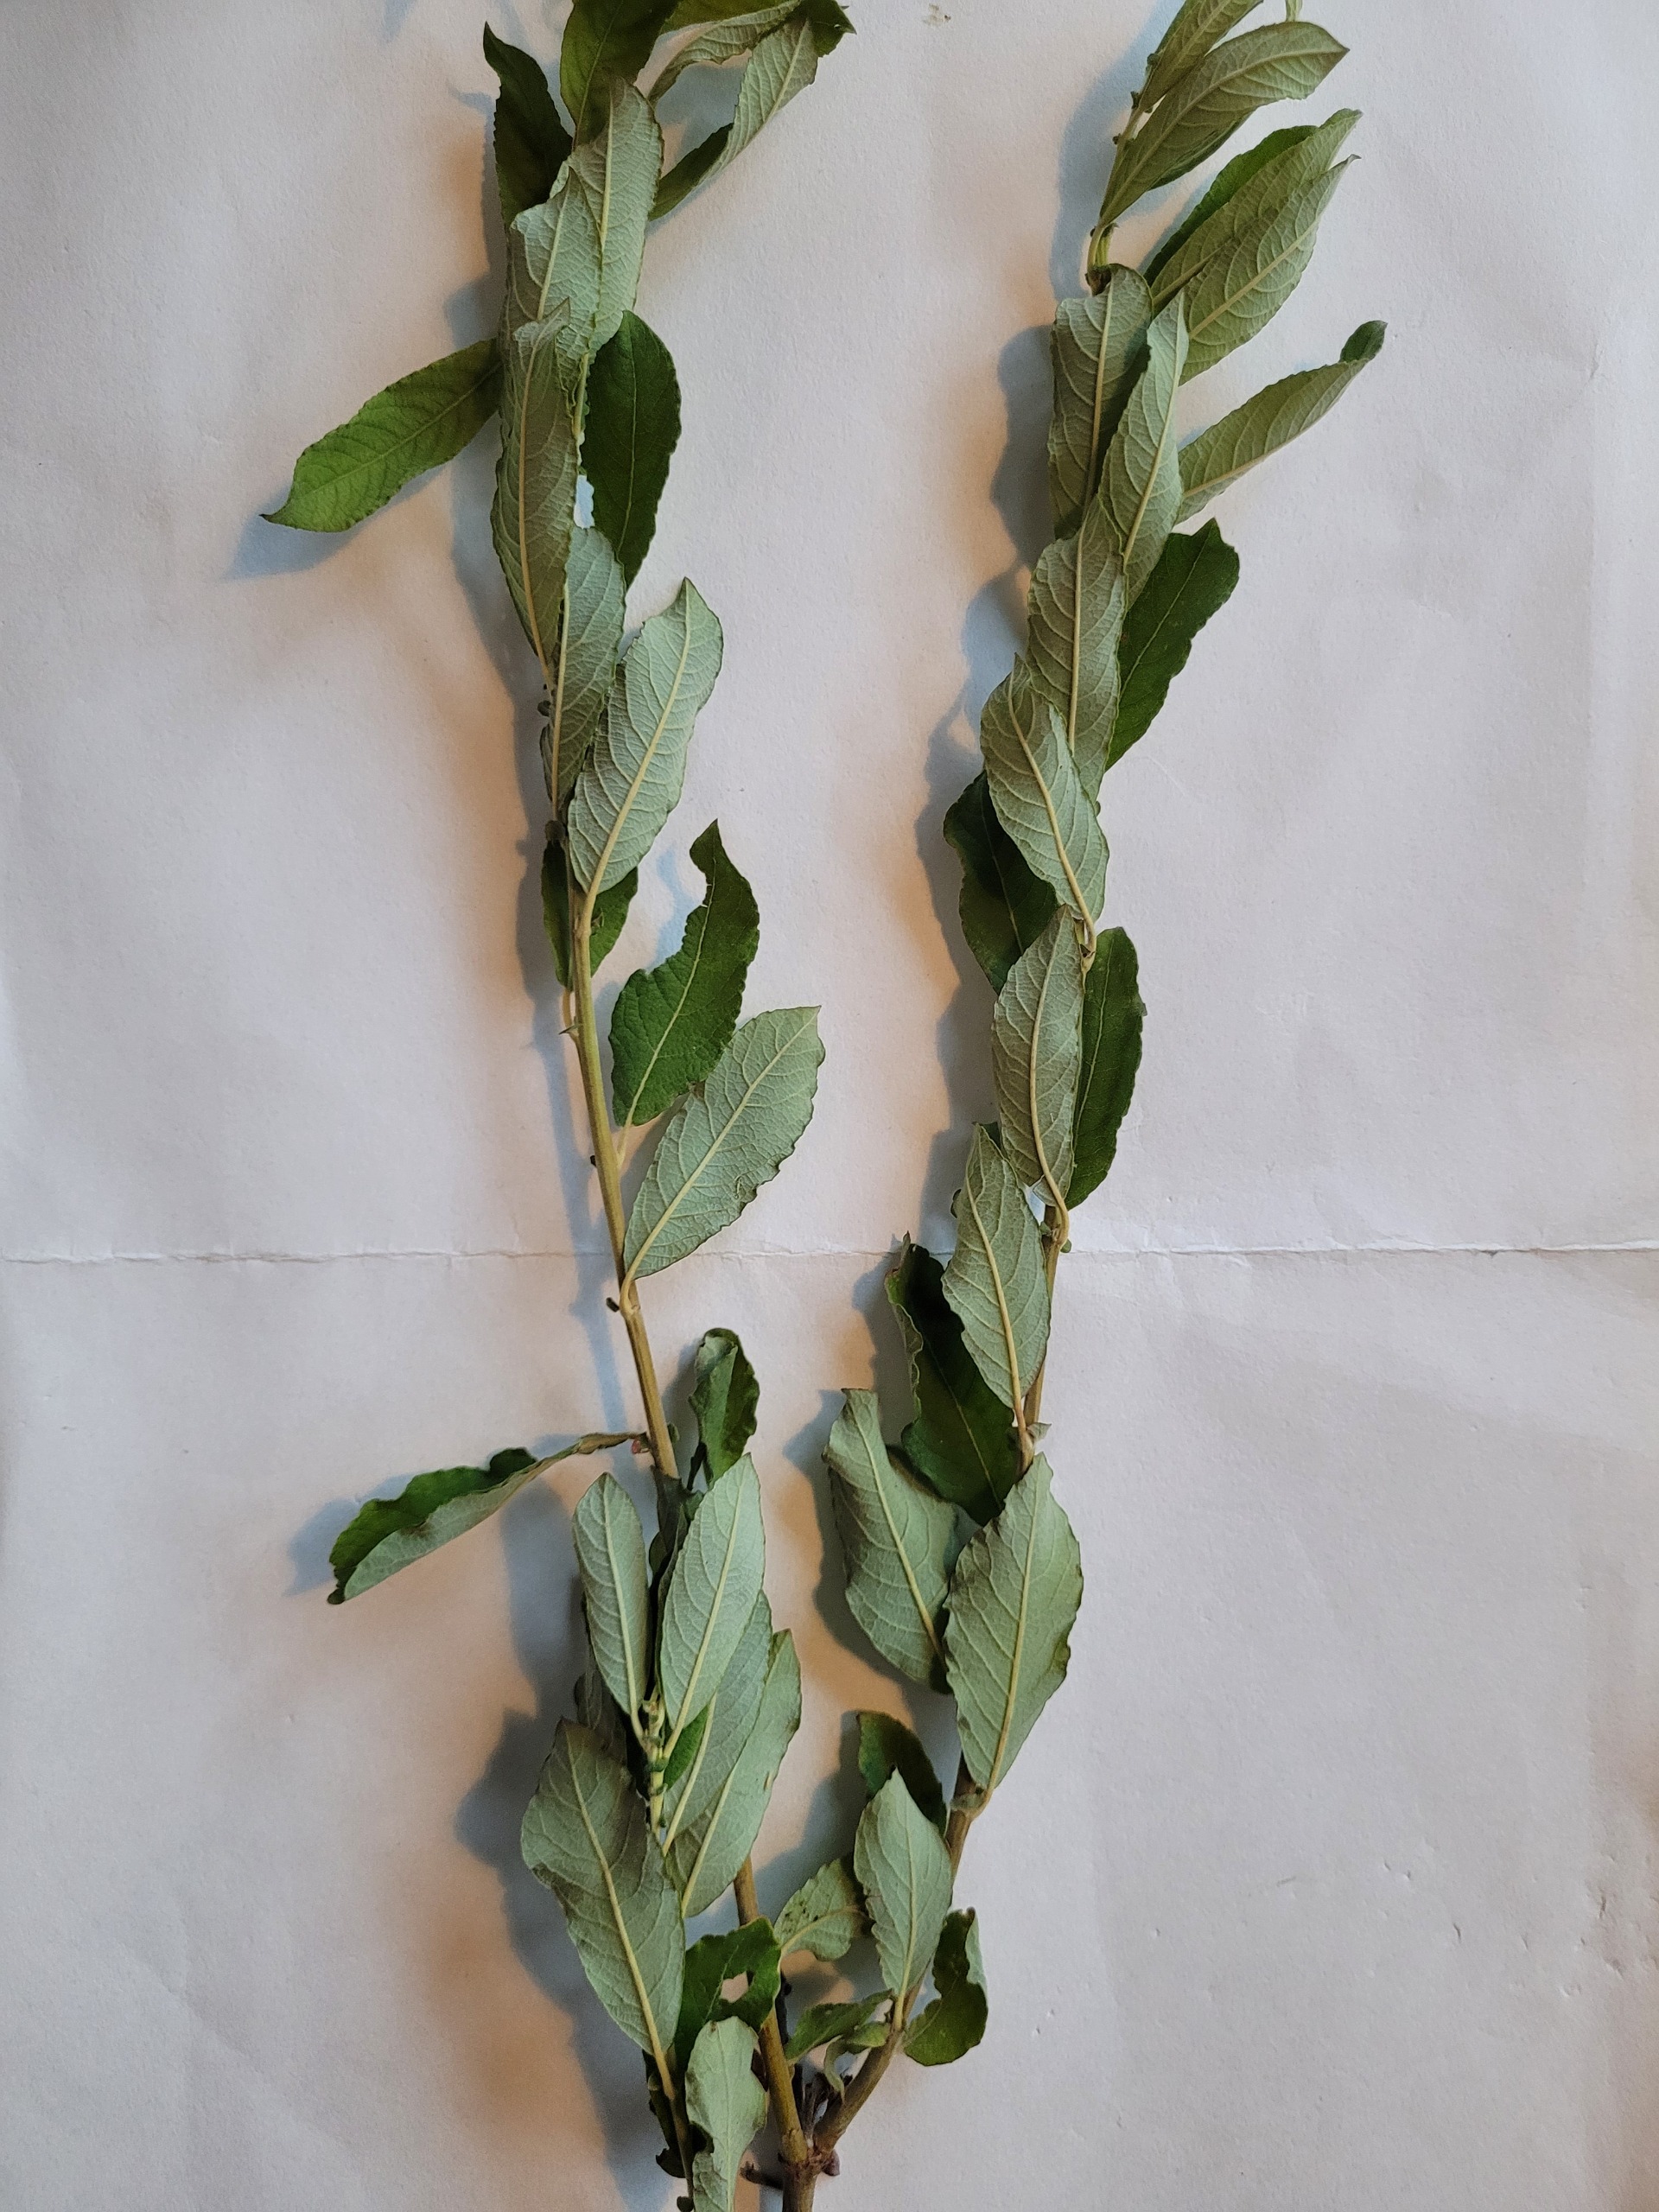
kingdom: Plantae
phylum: Tracheophyta
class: Magnoliopsida
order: Malpighiales
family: Salicaceae
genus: Salix
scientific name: Salix cinerea
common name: Grå-pil
